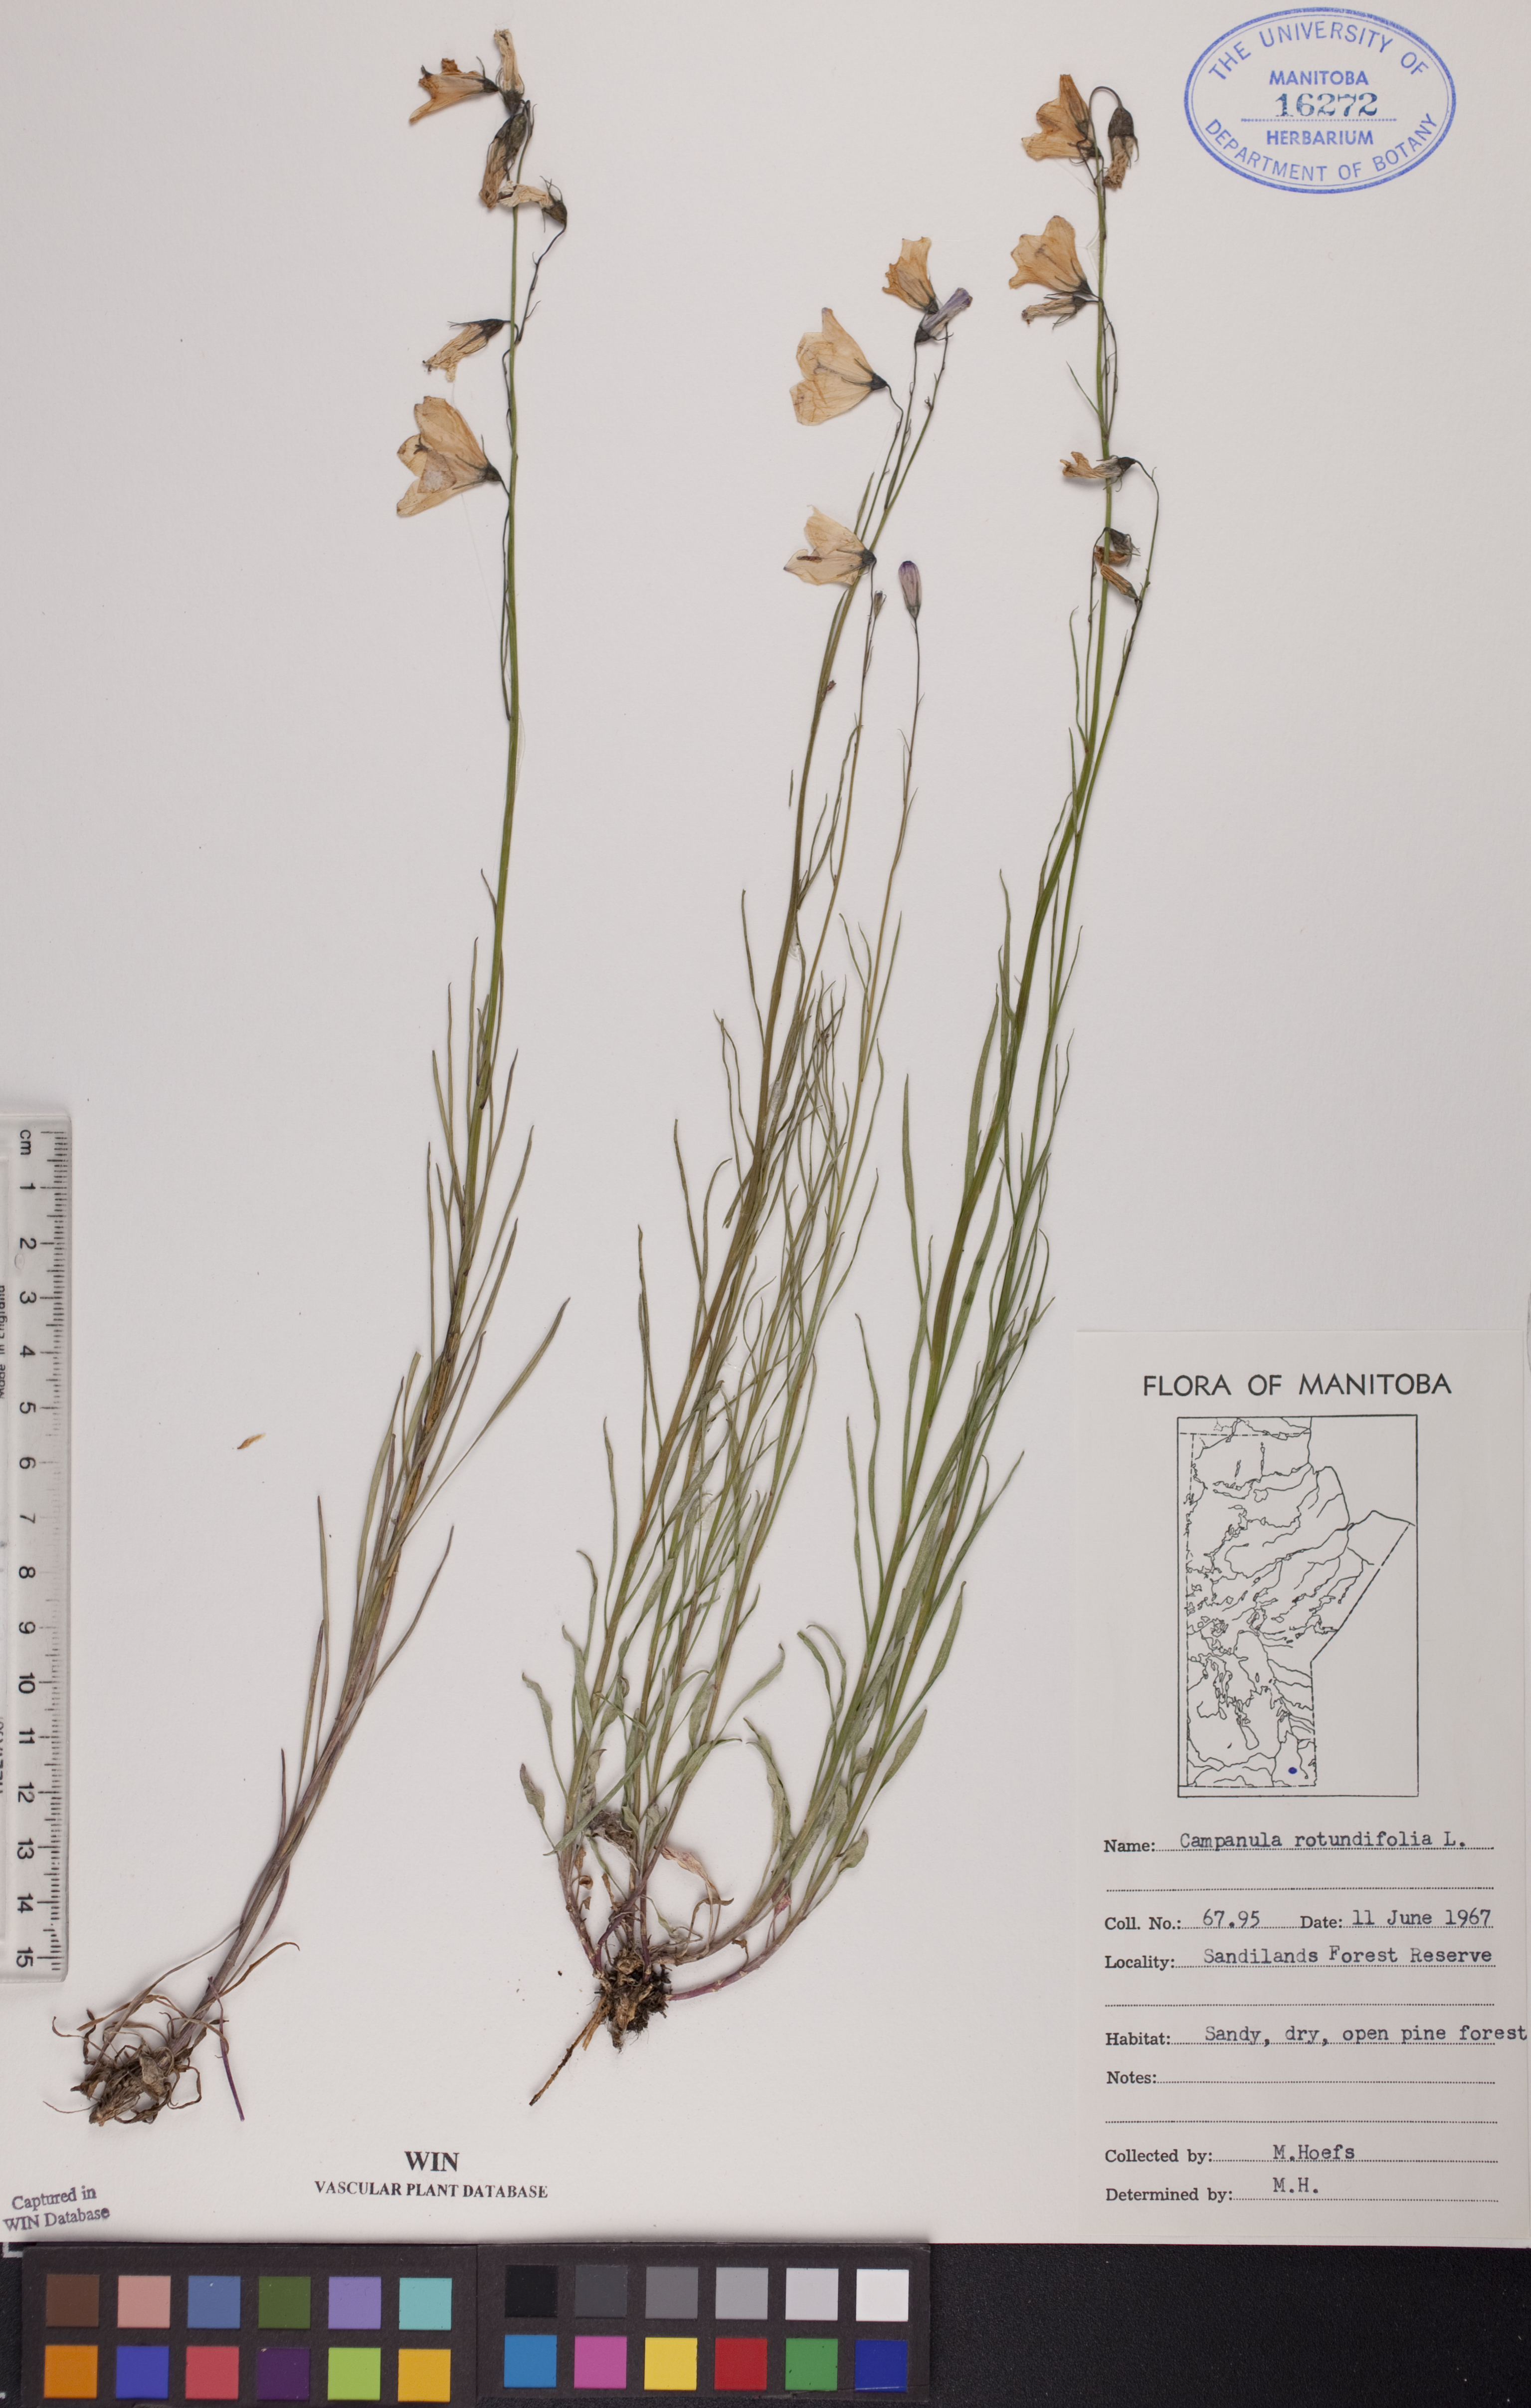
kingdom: Plantae
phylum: Tracheophyta
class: Magnoliopsida
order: Asterales
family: Campanulaceae
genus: Campanula
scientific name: Campanula rotundifolia
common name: Harebell
